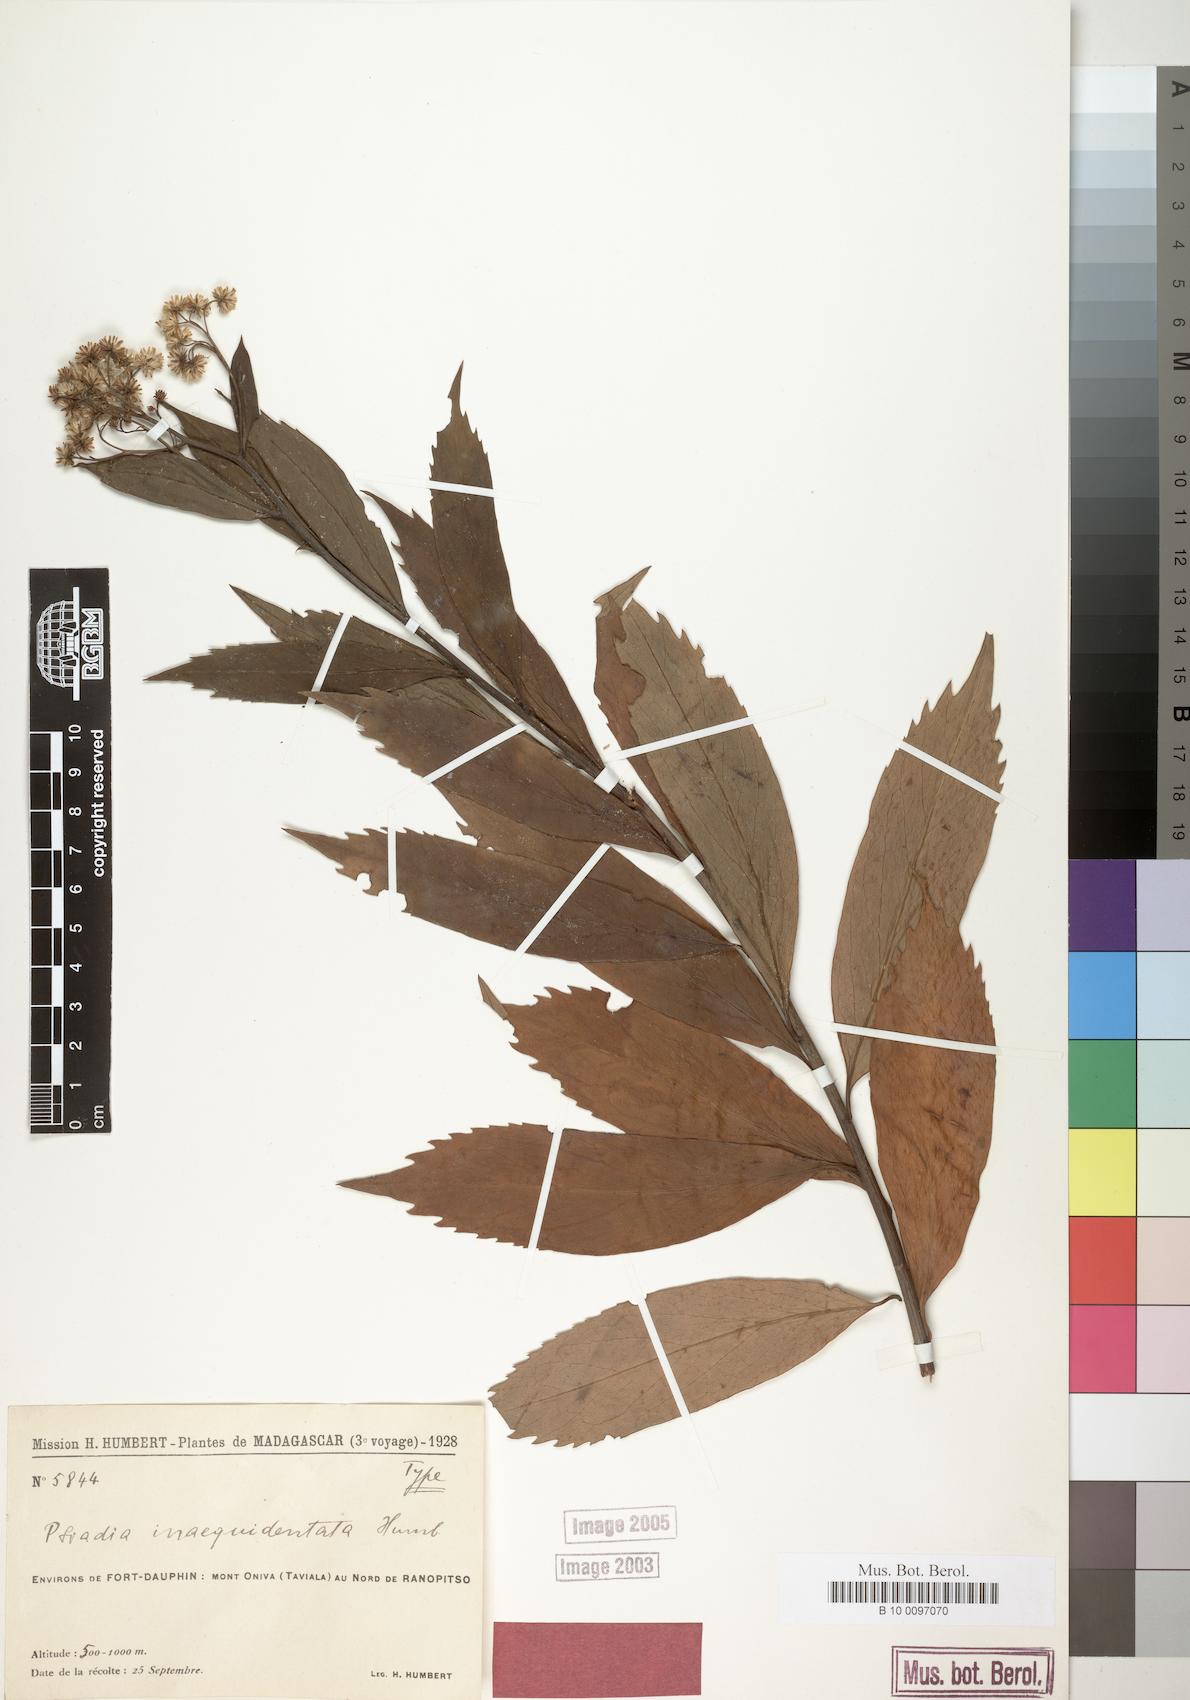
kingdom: Plantae
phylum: Tracheophyta
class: Magnoliopsida
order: Asterales
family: Asteraceae
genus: Psiadia
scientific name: Psiadia inaequidentata
